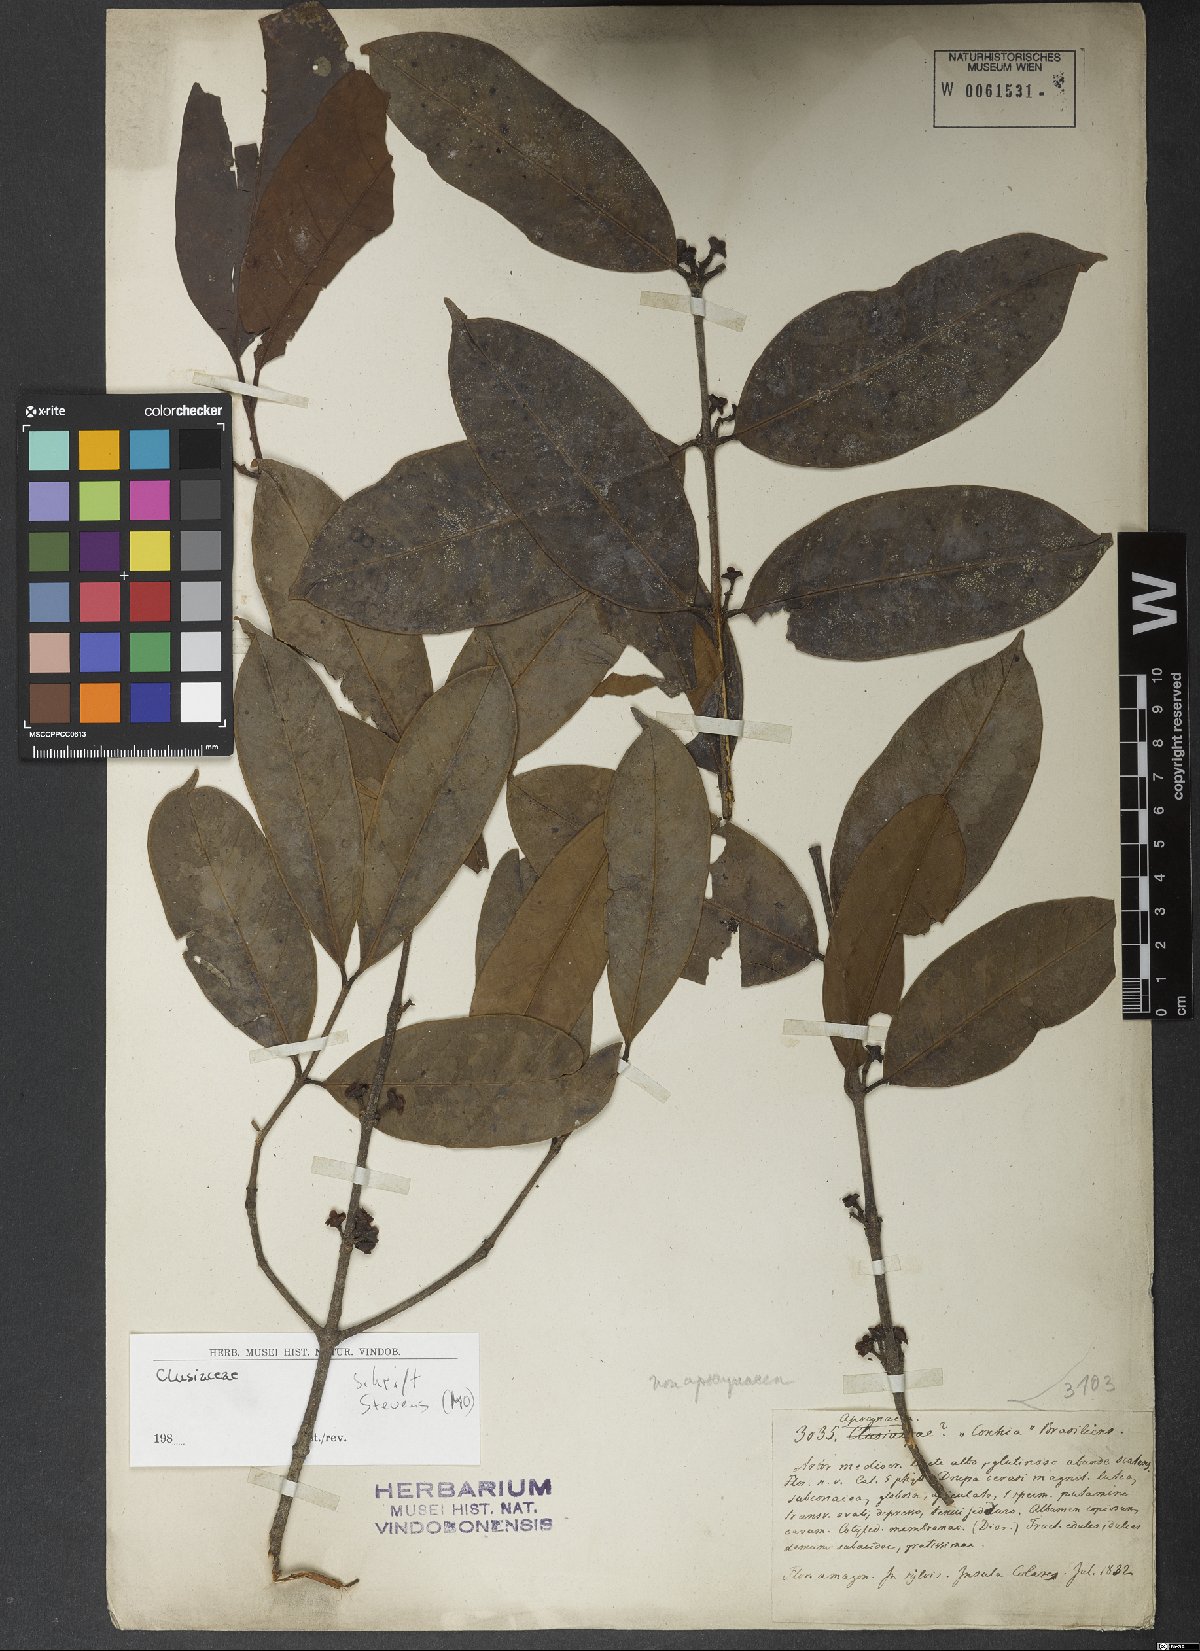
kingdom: Plantae
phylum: Tracheophyta
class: Magnoliopsida
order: Gentianales
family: Apocynaceae
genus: Lacmellea
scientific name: Lacmellea aculeata
